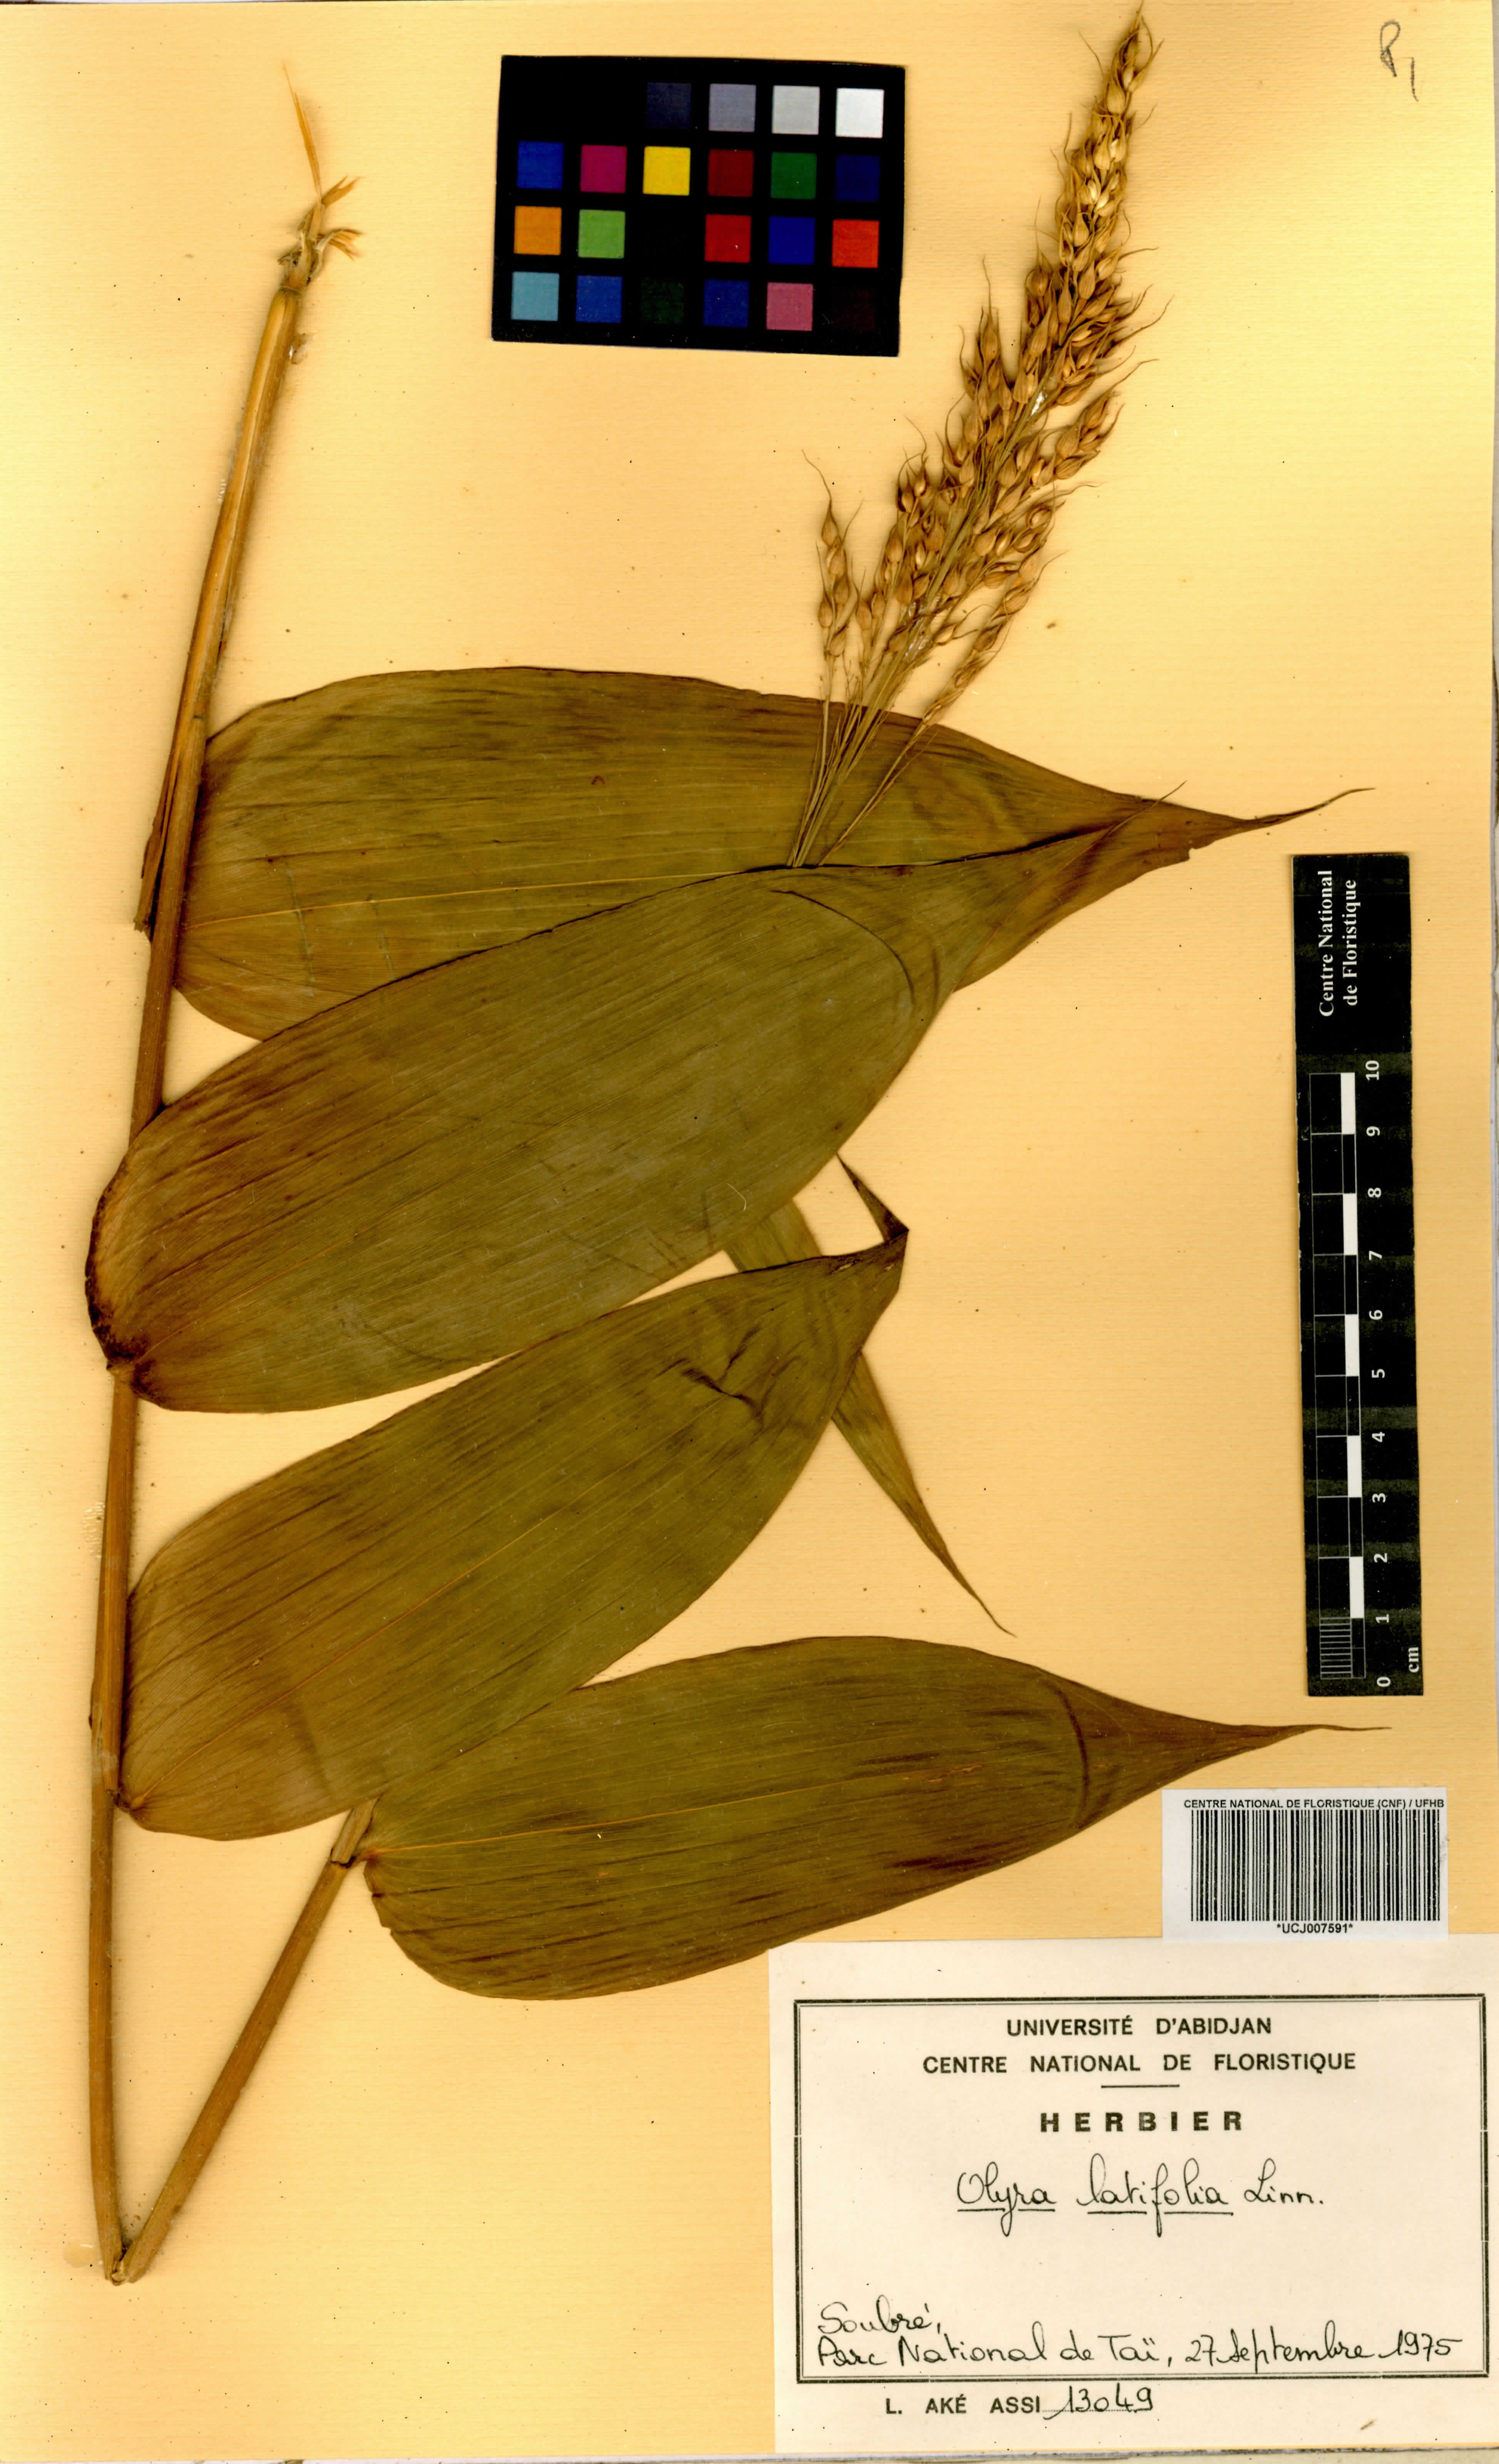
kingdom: Plantae
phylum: Tracheophyta
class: Liliopsida
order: Poales
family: Poaceae
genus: Olyra
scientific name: Olyra latifolia
